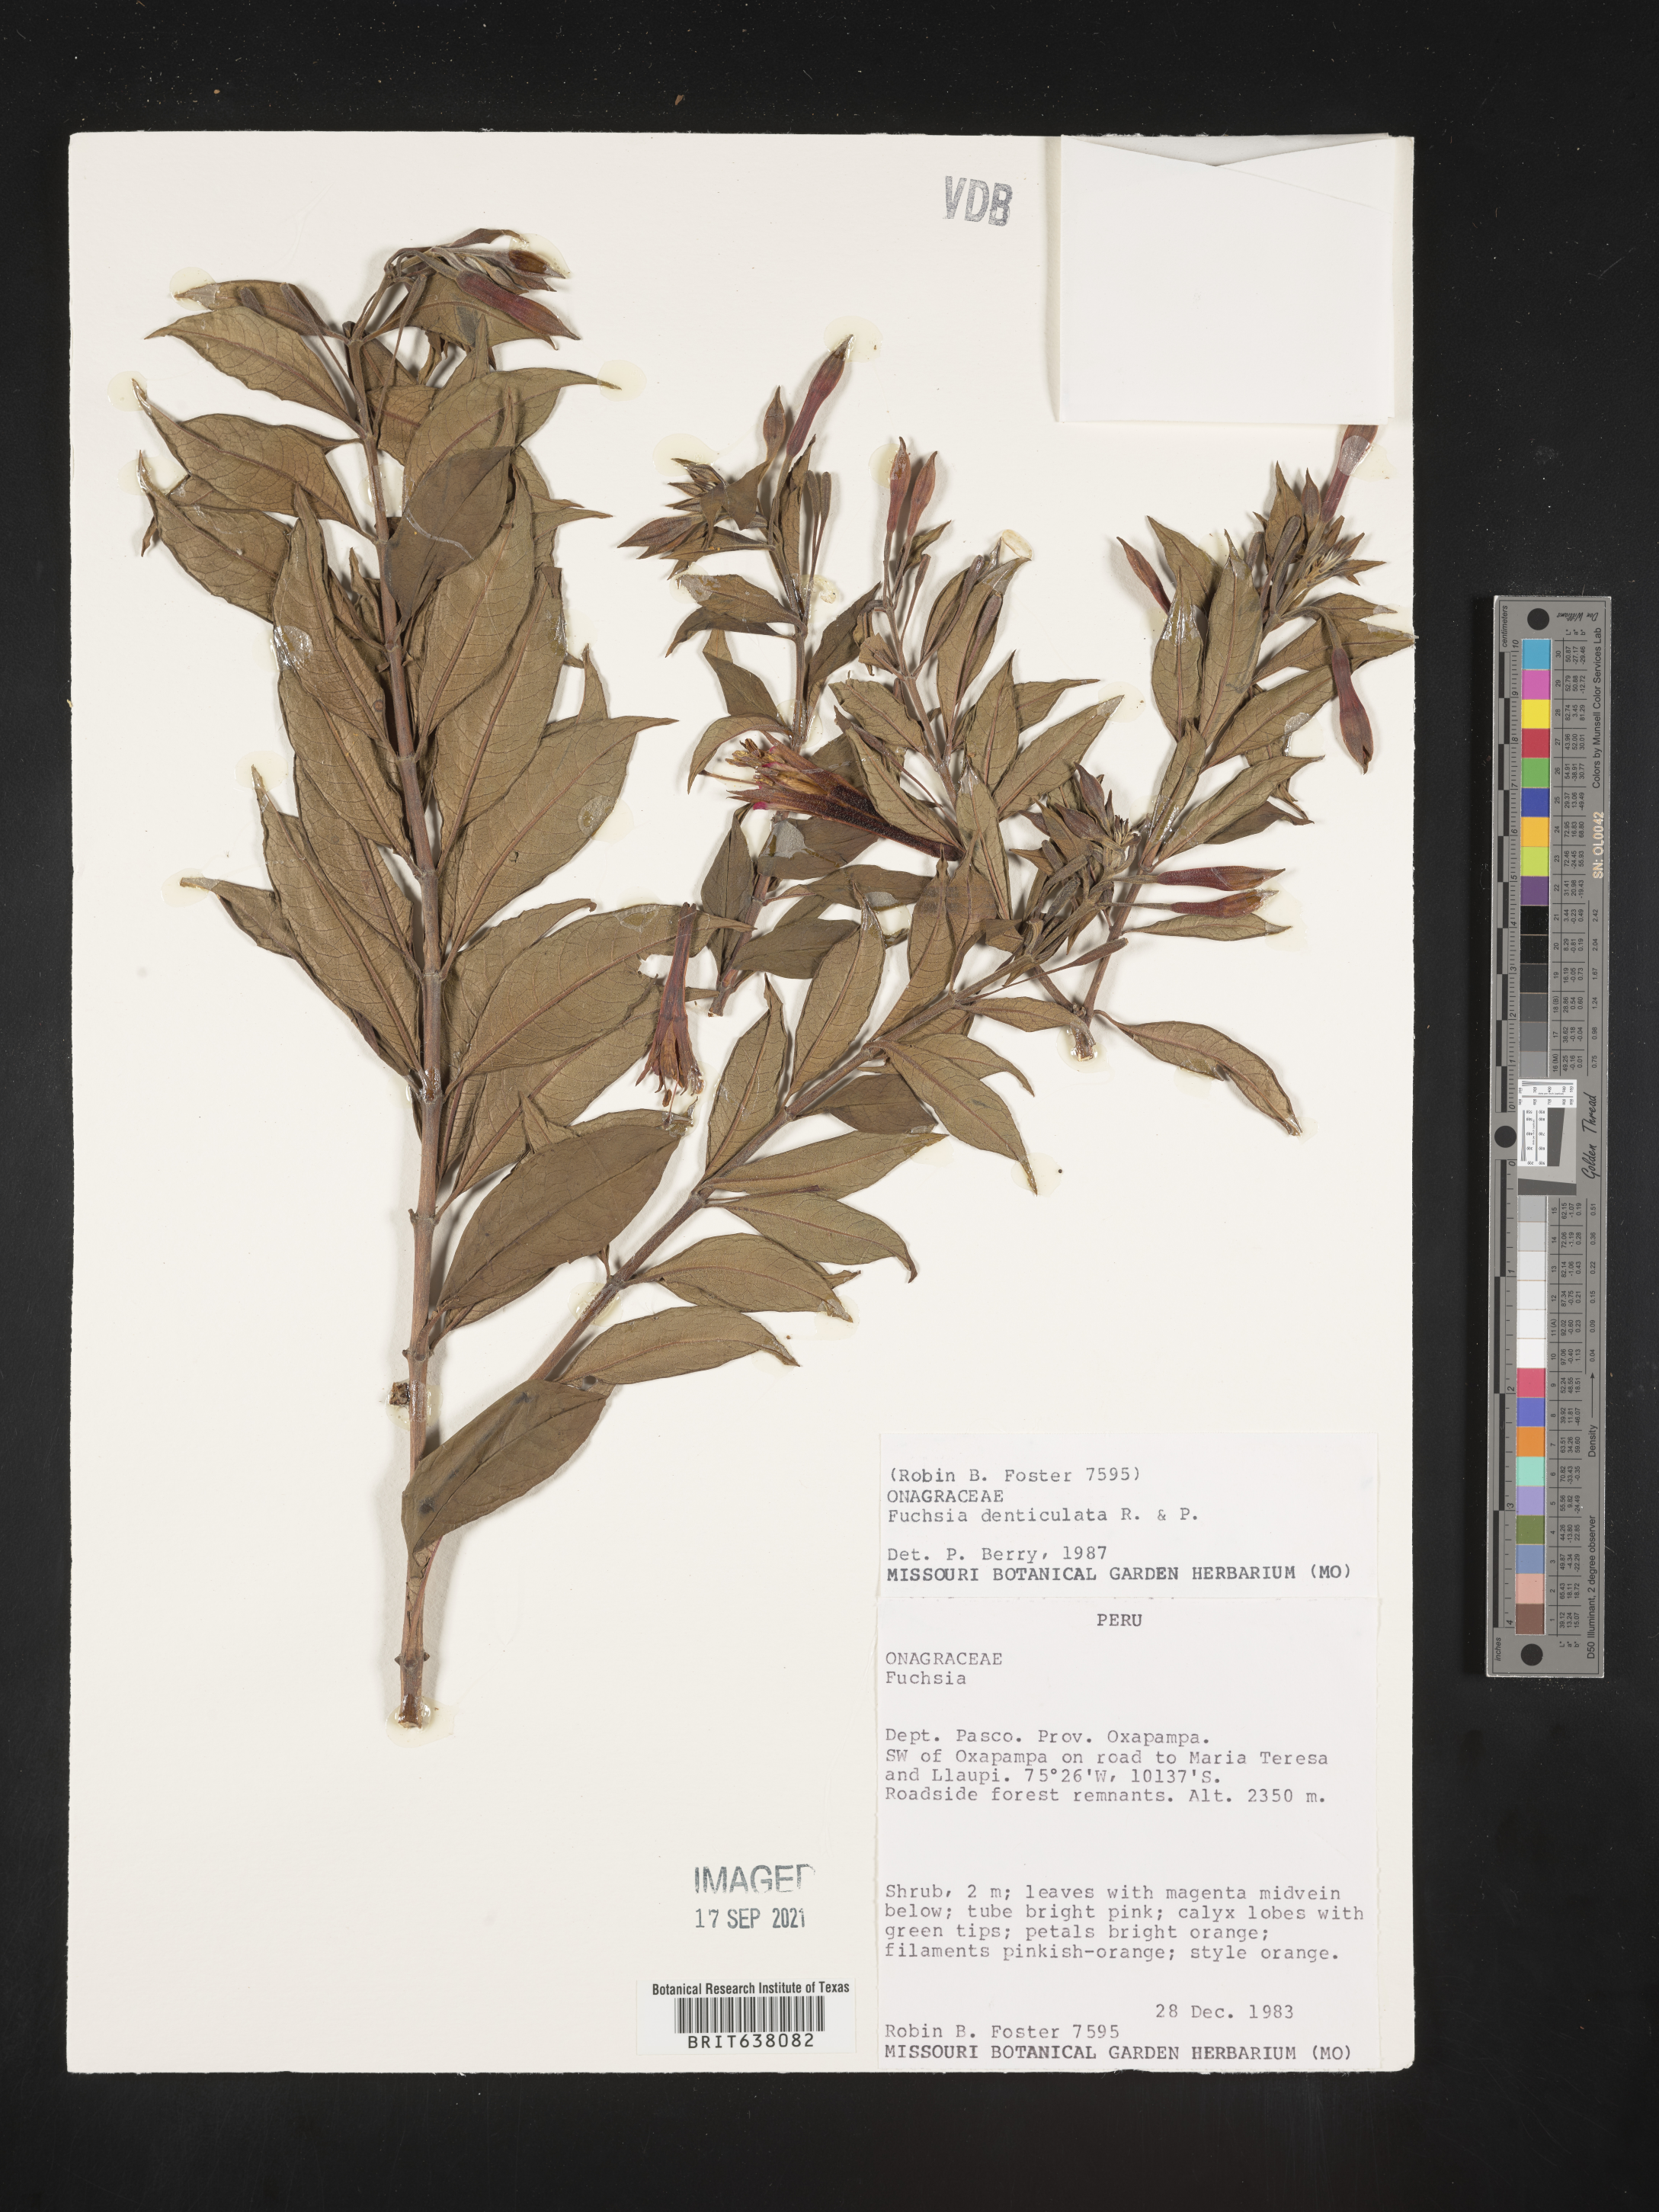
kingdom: Plantae
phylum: Tracheophyta
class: Magnoliopsida
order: Myrtales
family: Onagraceae
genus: Fuchsia
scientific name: Fuchsia
